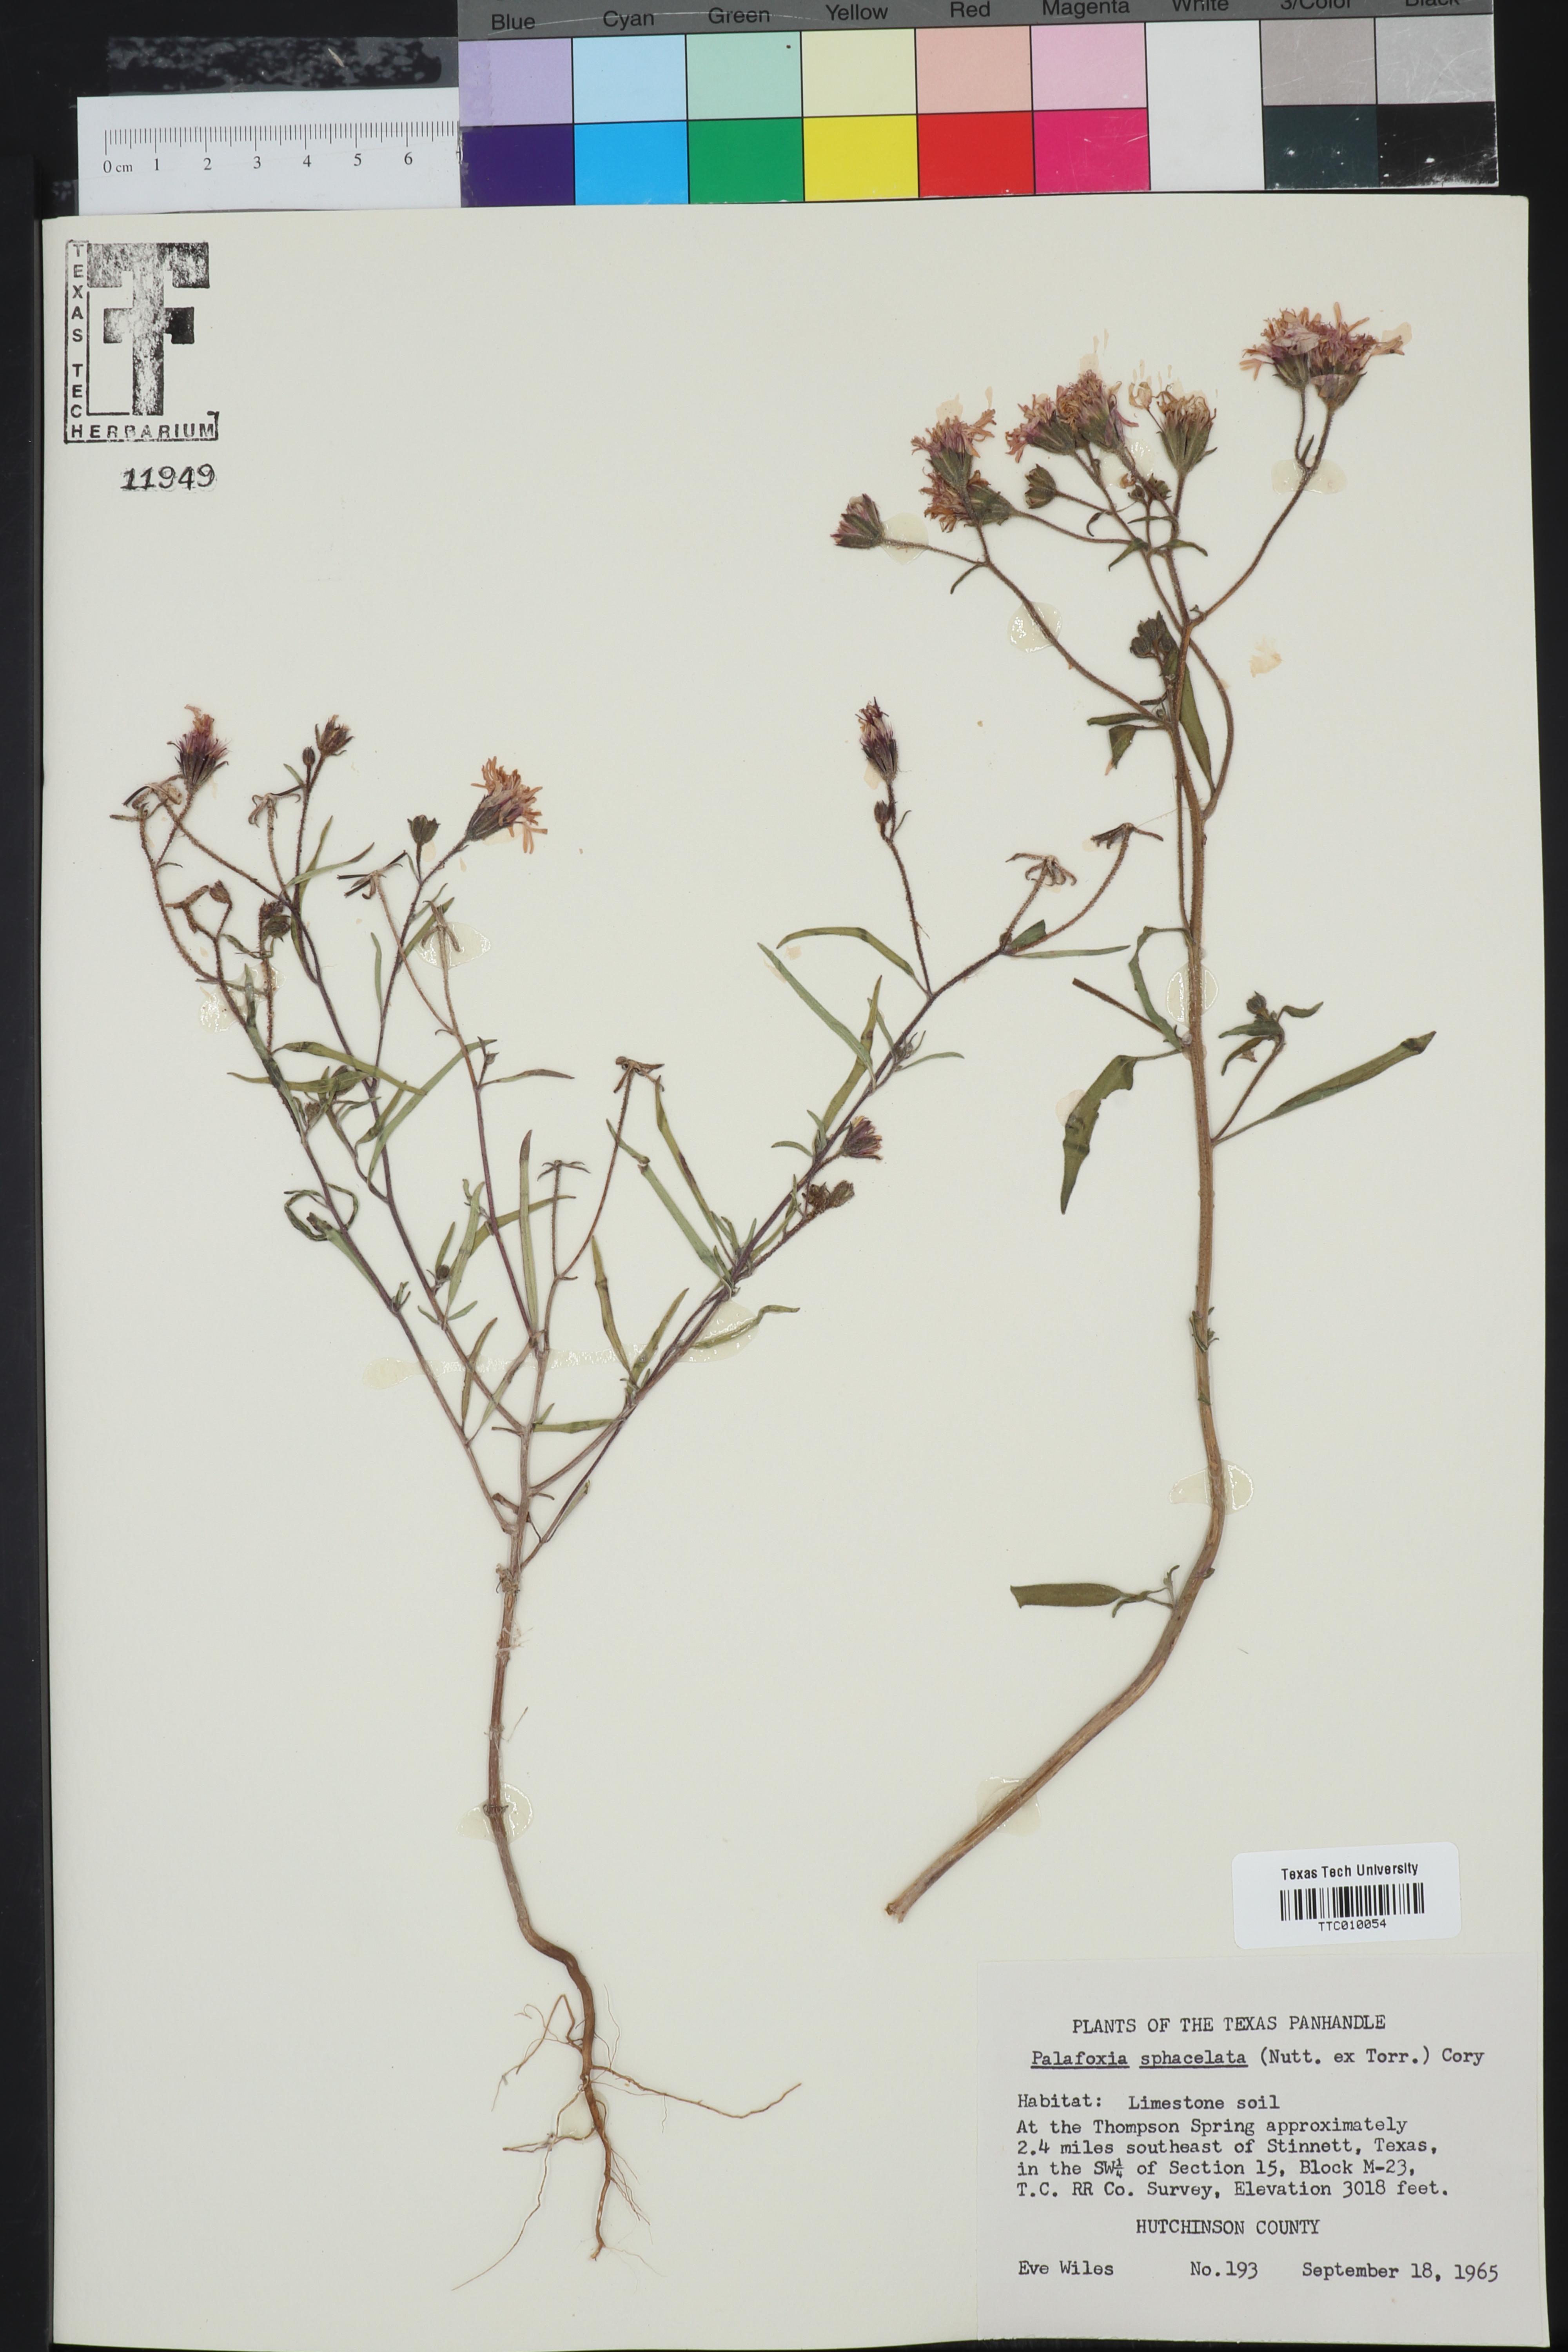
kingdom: Plantae
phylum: Tracheophyta
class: Magnoliopsida
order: Asterales
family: Asteraceae
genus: Palafoxia
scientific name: Palafoxia sphacelata
